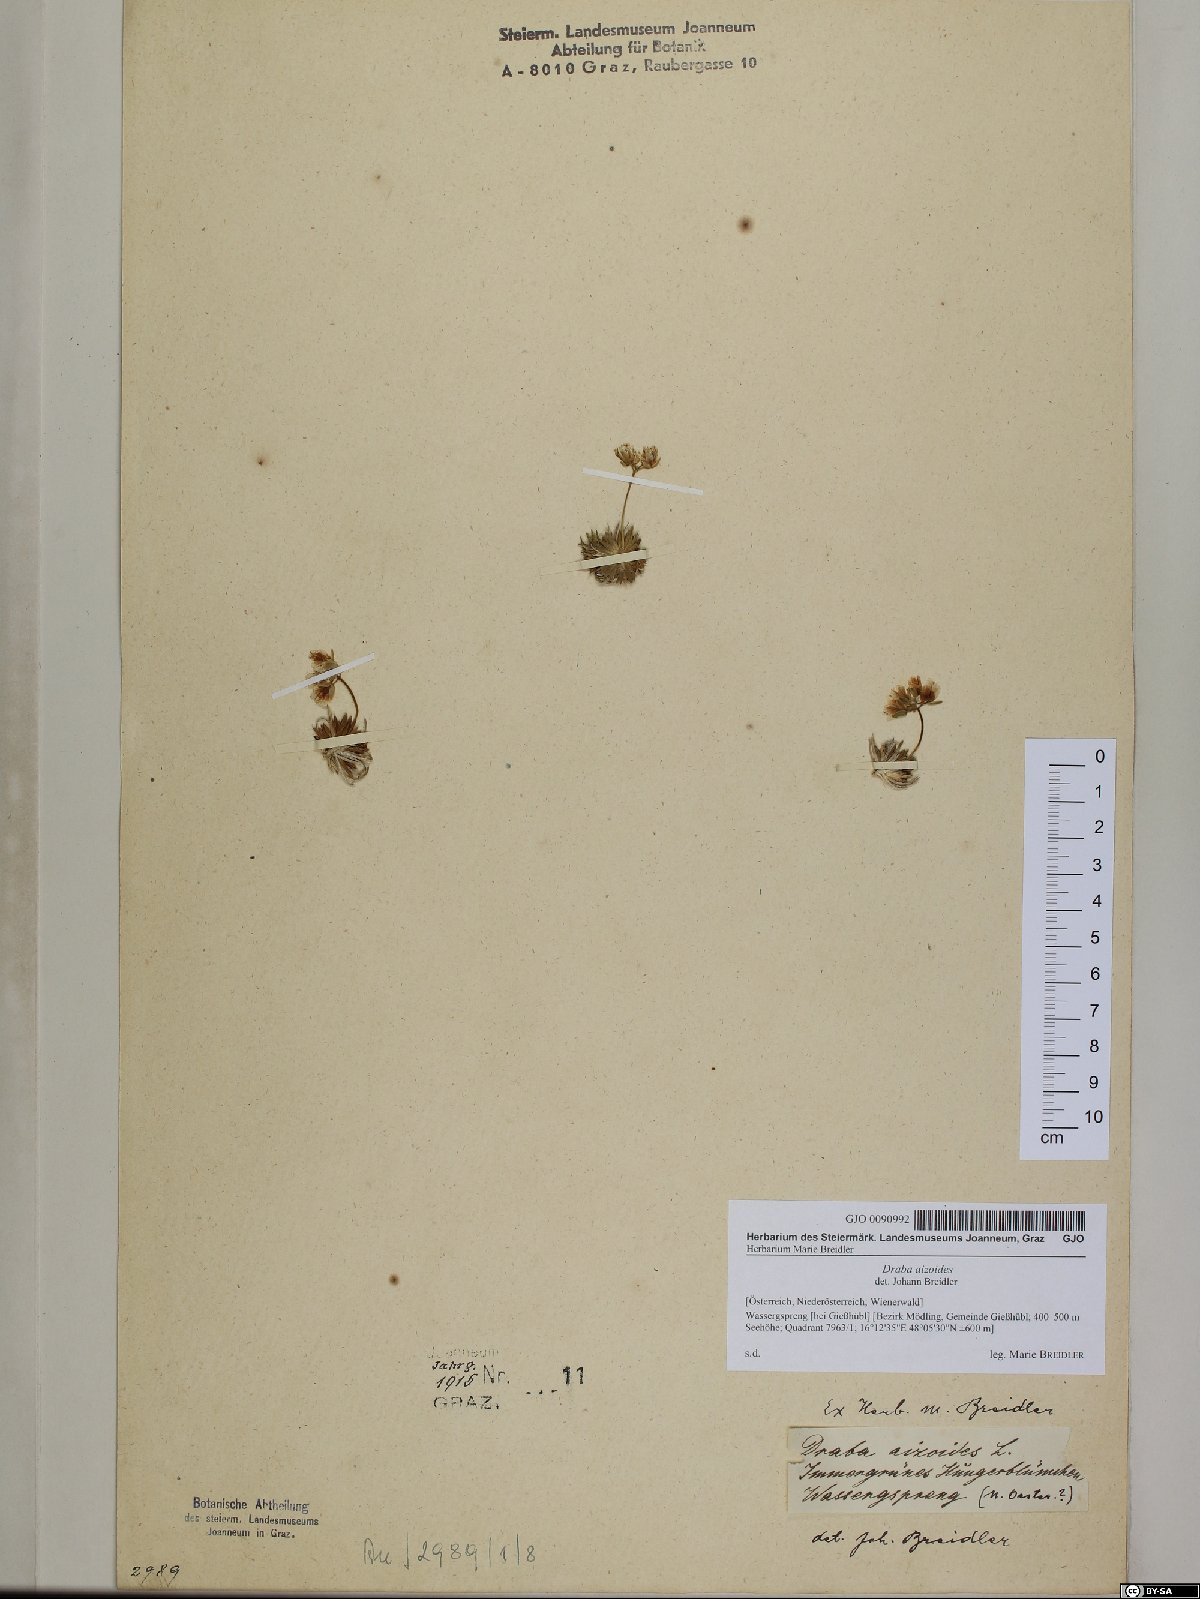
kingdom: Plantae
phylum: Tracheophyta
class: Magnoliopsida
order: Brassicales
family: Brassicaceae
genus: Draba
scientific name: Draba aizoides
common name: Yellow whitlowgrass
